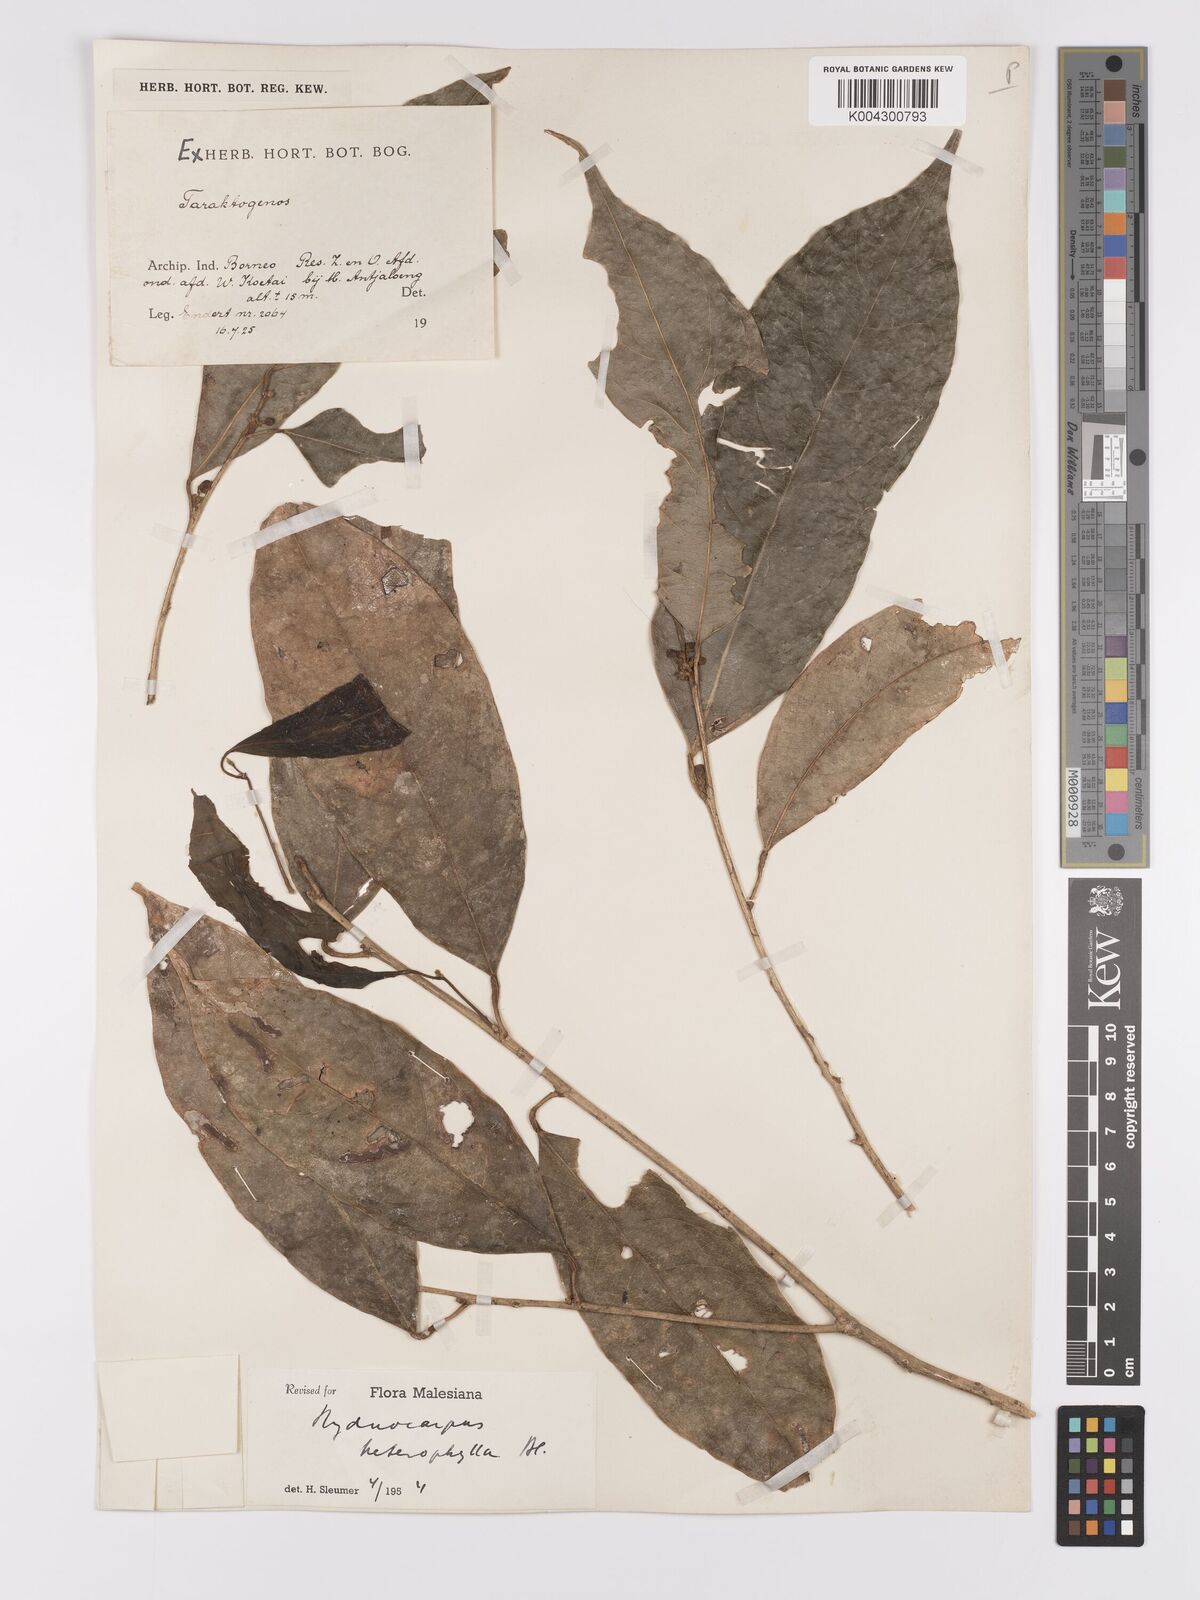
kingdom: Plantae
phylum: Tracheophyta
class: Magnoliopsida
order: Malpighiales
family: Achariaceae
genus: Hydnocarpus
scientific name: Hydnocarpus heterophyllus
